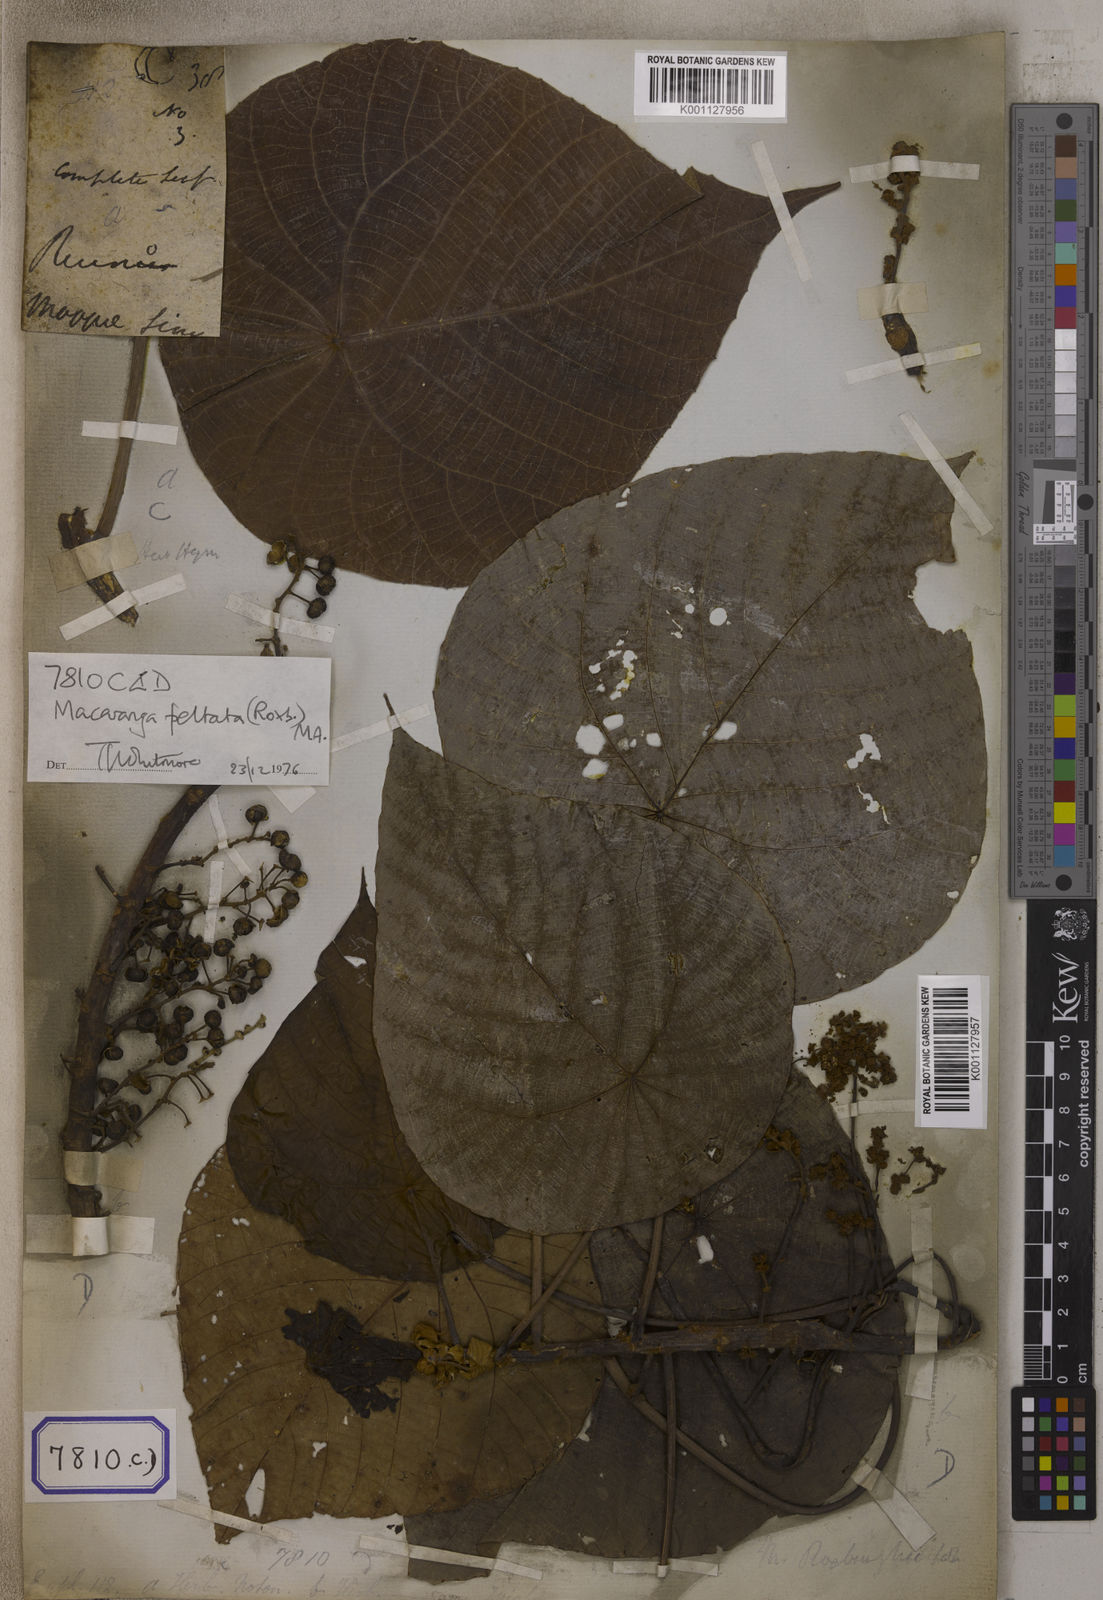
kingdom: Plantae
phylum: Tracheophyta
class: Magnoliopsida
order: Malpighiales
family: Euphorbiaceae
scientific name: Euphorbiaceae
